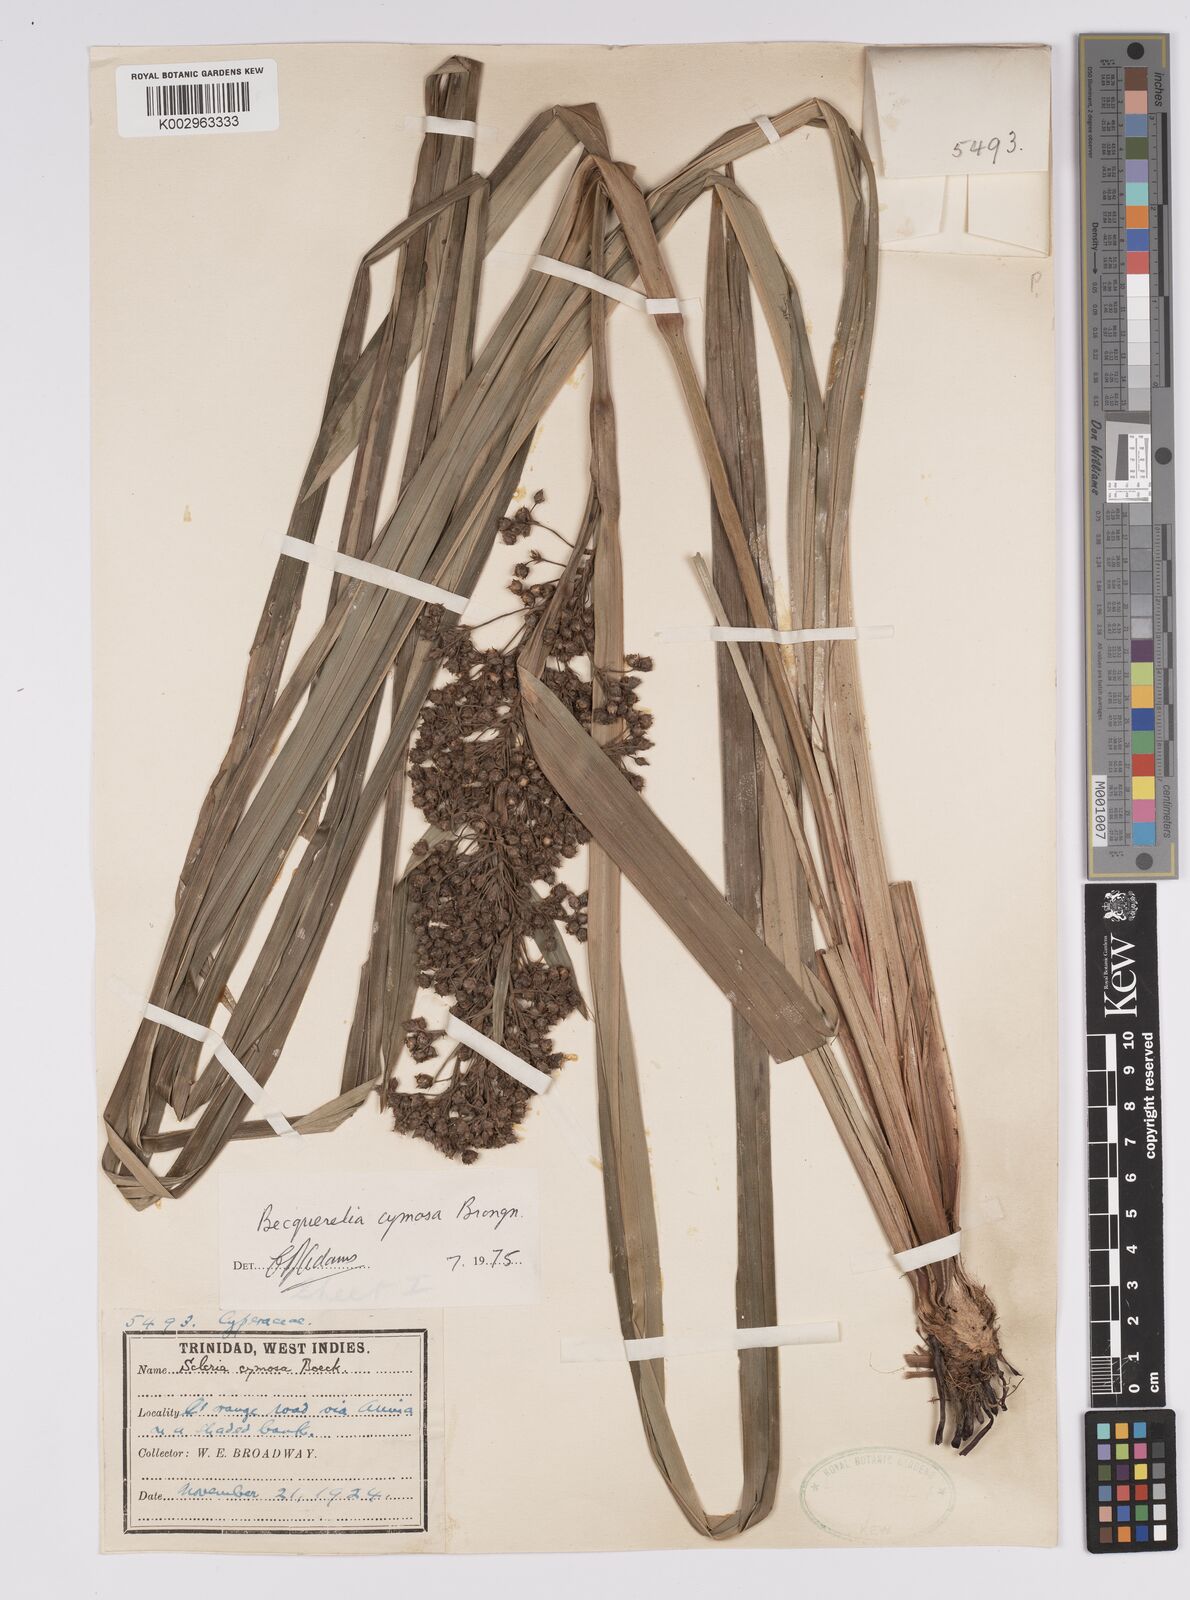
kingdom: Plantae
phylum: Tracheophyta
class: Liliopsida
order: Poales
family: Cyperaceae
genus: Becquerelia
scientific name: Becquerelia cymosa
